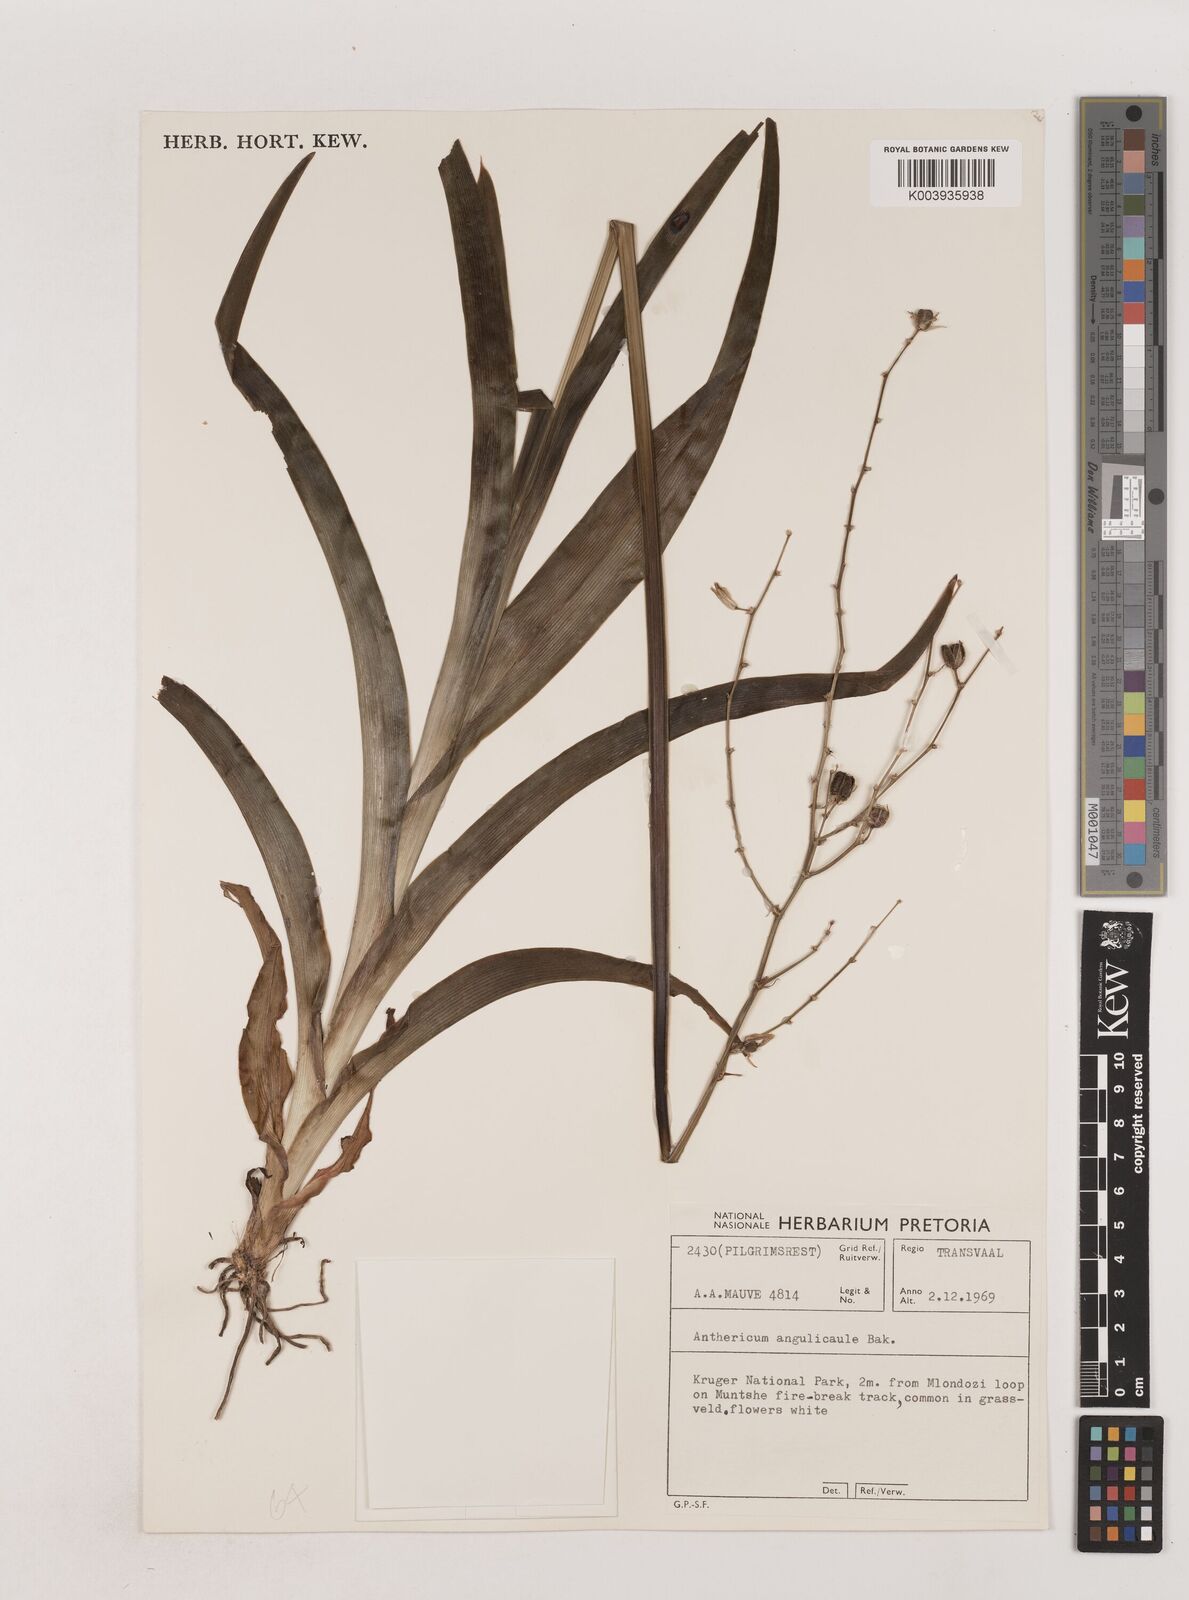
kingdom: Plantae
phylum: Tracheophyta
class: Liliopsida
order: Asparagales
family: Asparagaceae
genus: Chlorophytum
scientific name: Chlorophytum angulicaule
